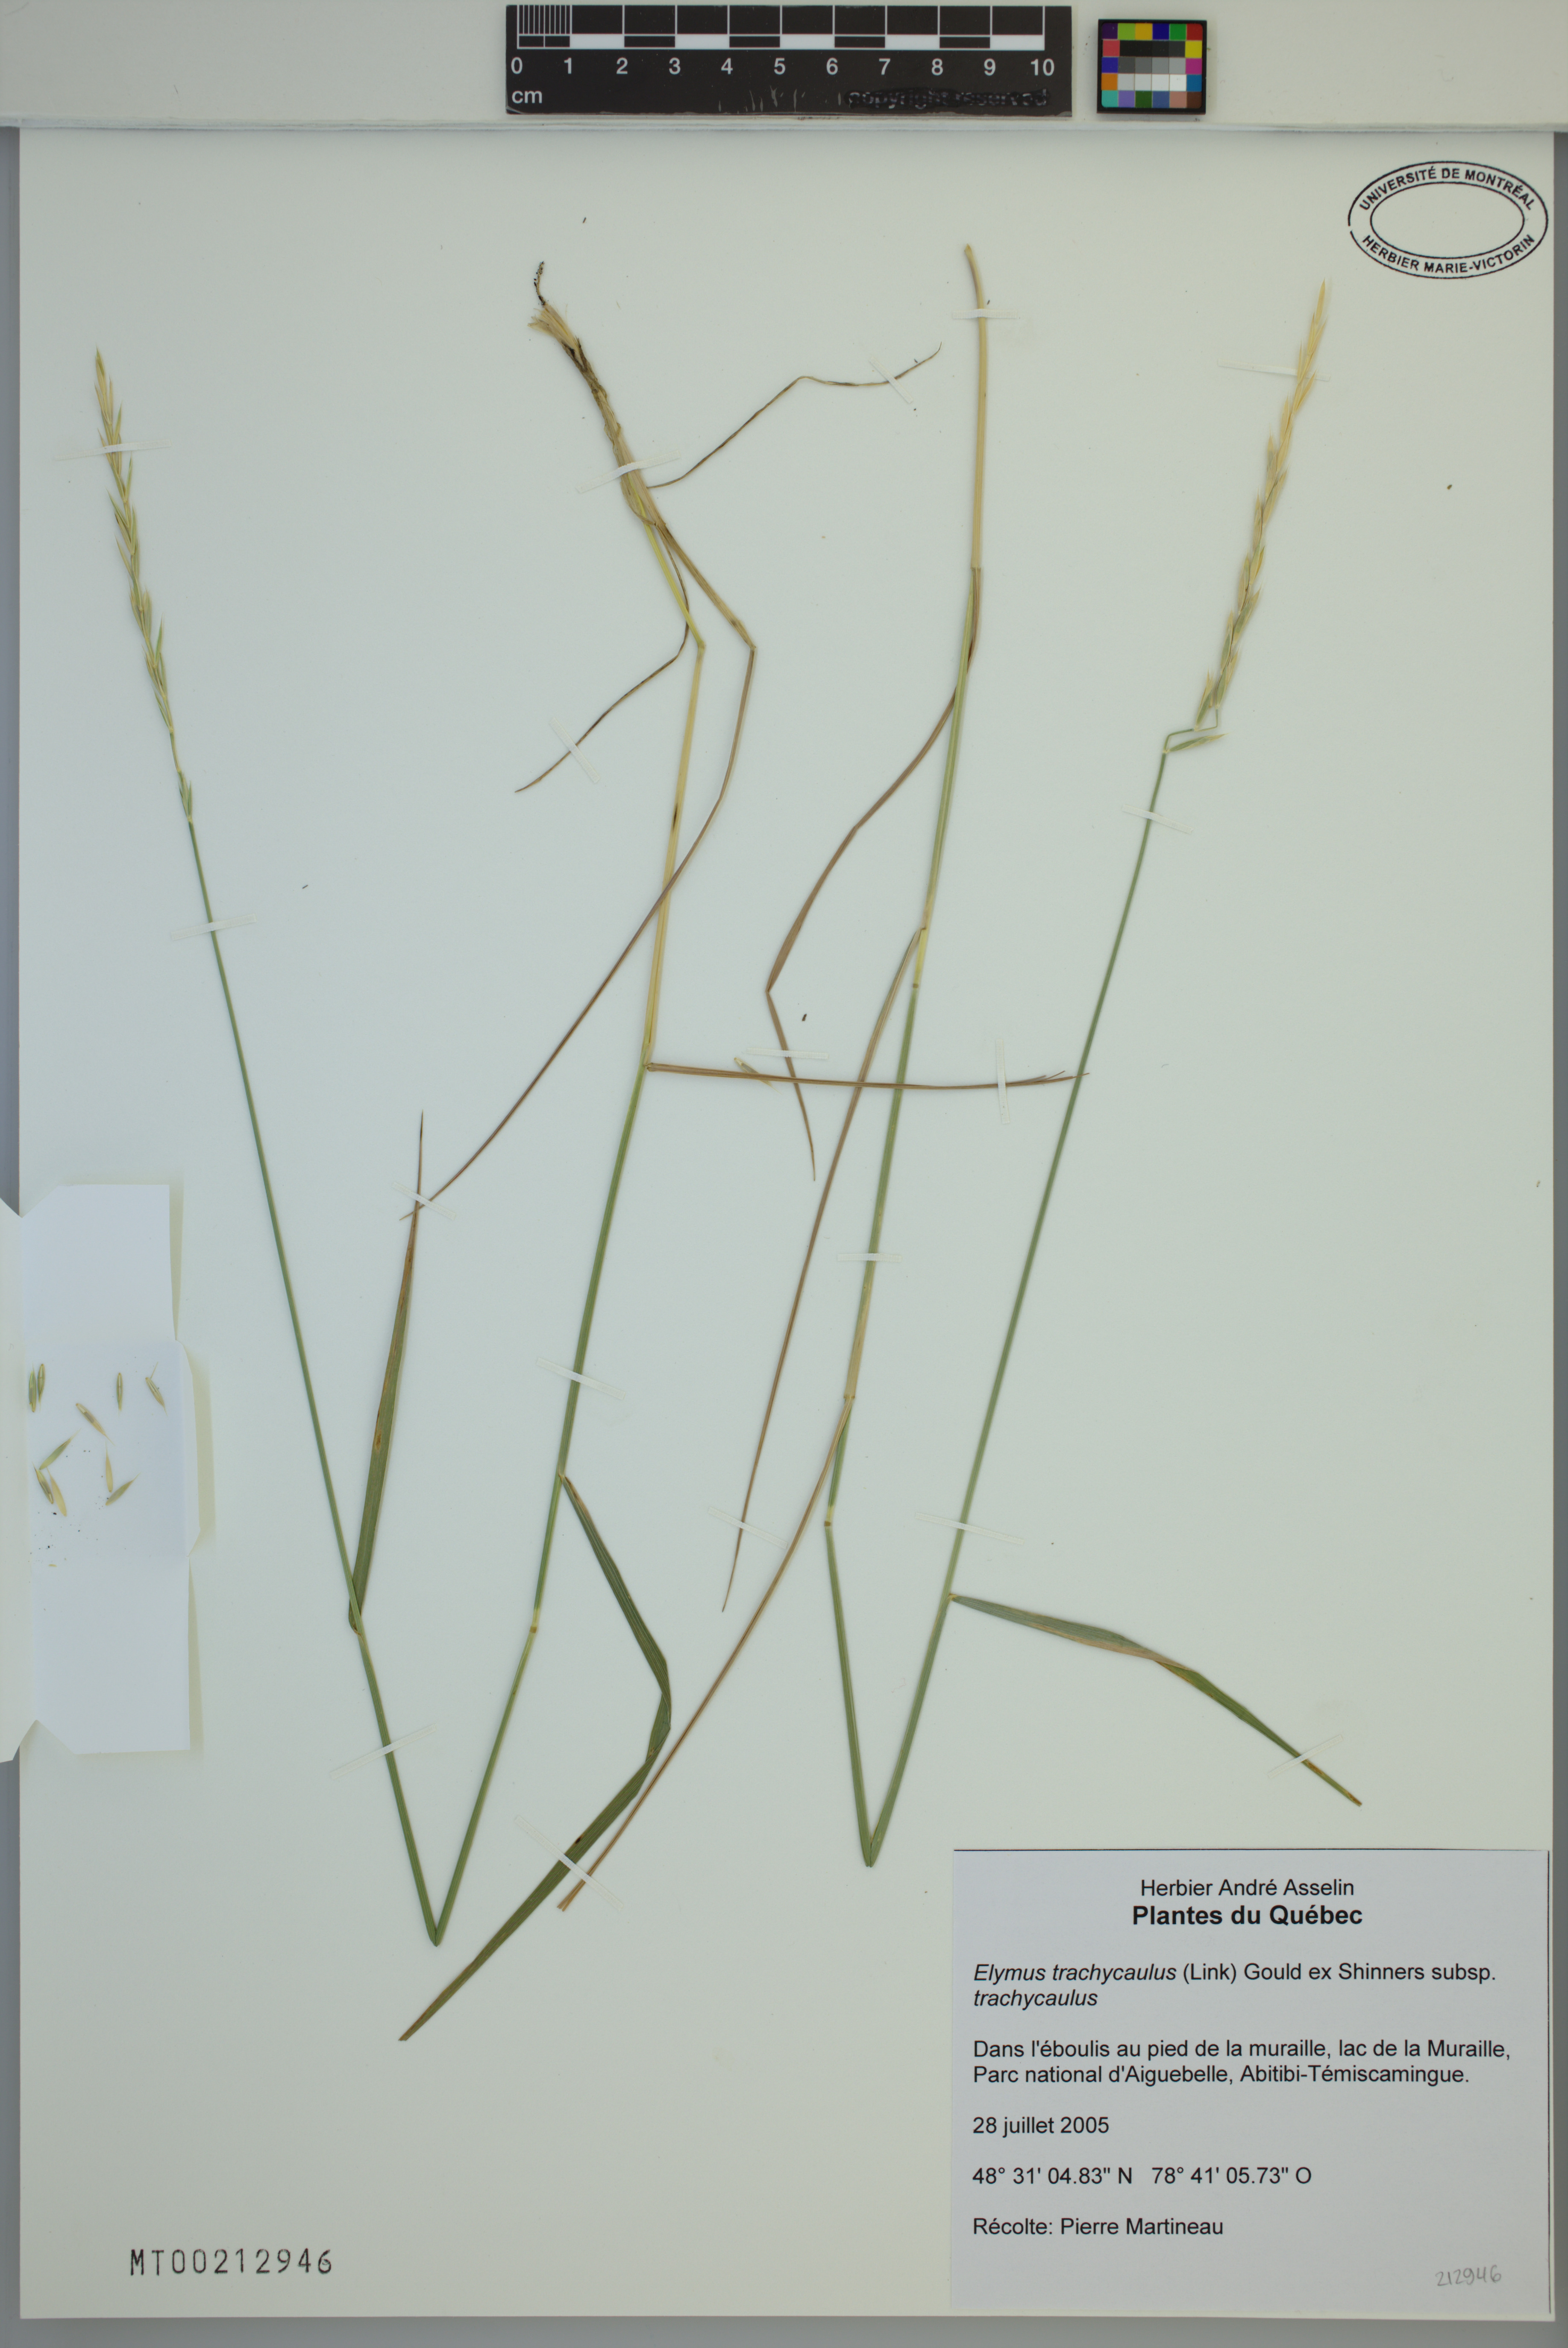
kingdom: Plantae
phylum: Tracheophyta
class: Liliopsida
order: Poales
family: Poaceae
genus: Elymus
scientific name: Elymus violaceus
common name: Arctic wheatgrass
